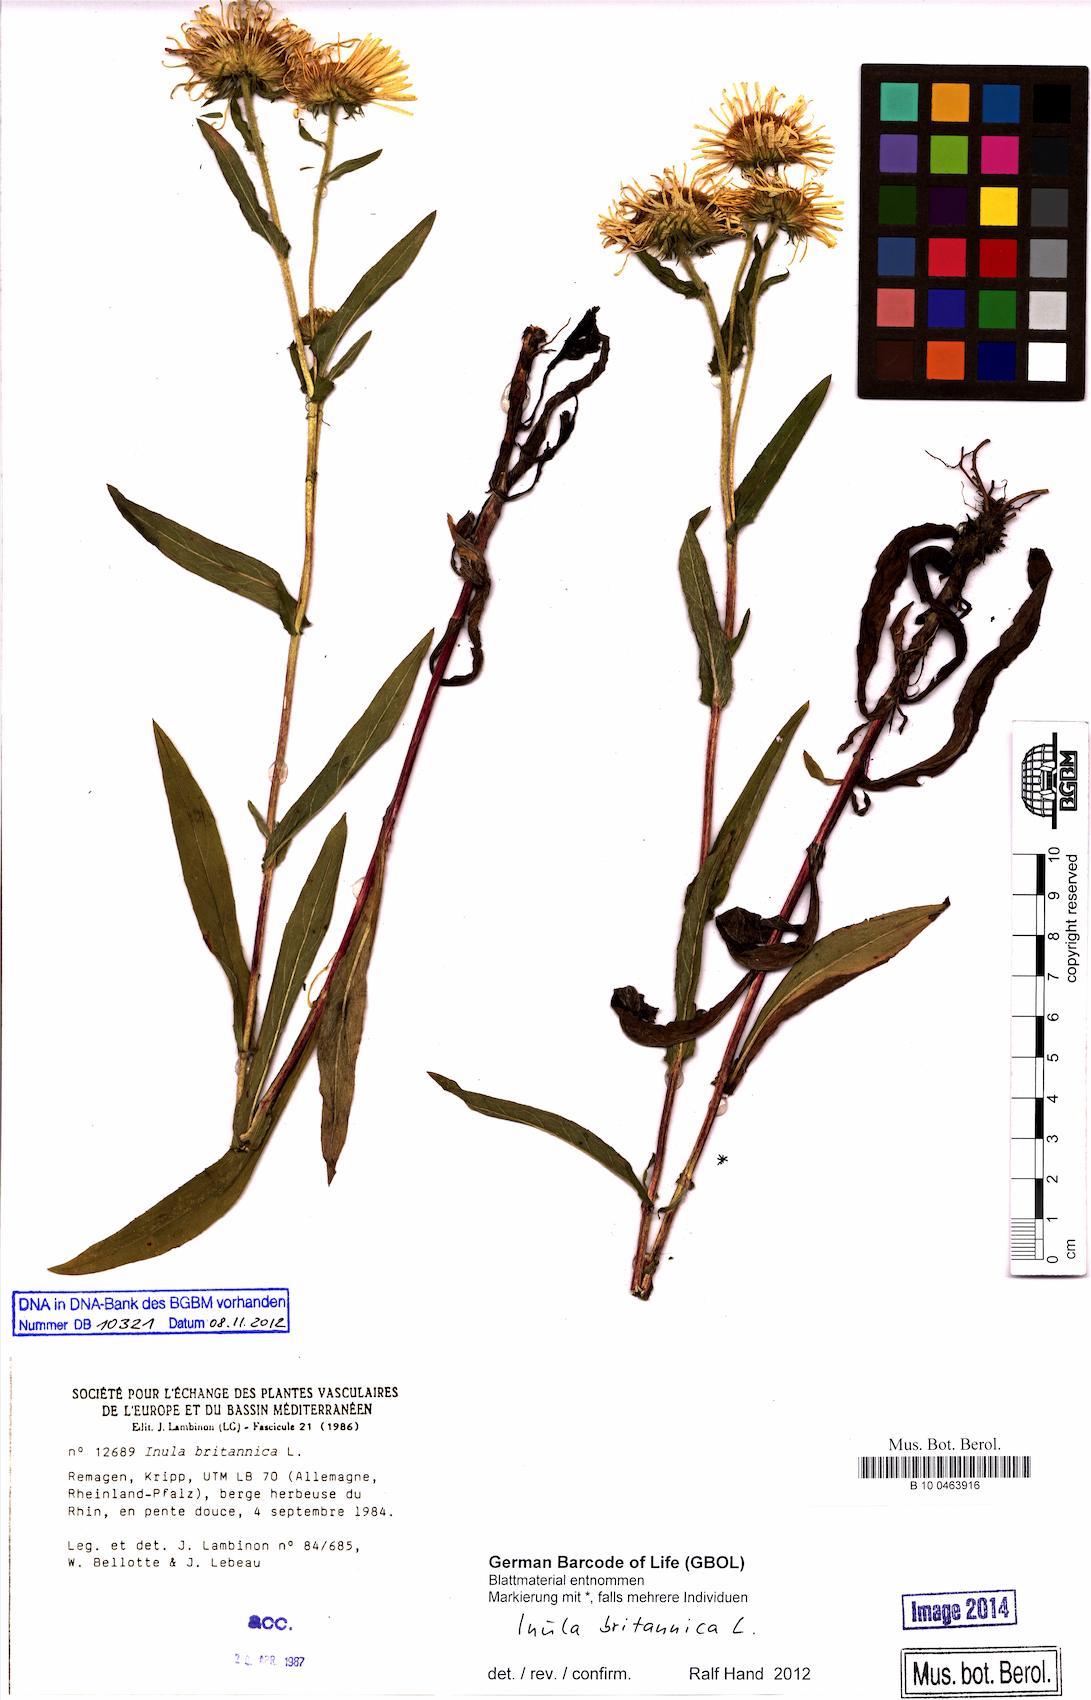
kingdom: Plantae
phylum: Tracheophyta
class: Magnoliopsida
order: Asterales
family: Asteraceae
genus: Pentanema
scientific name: Pentanema britannicum
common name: British elecampane
